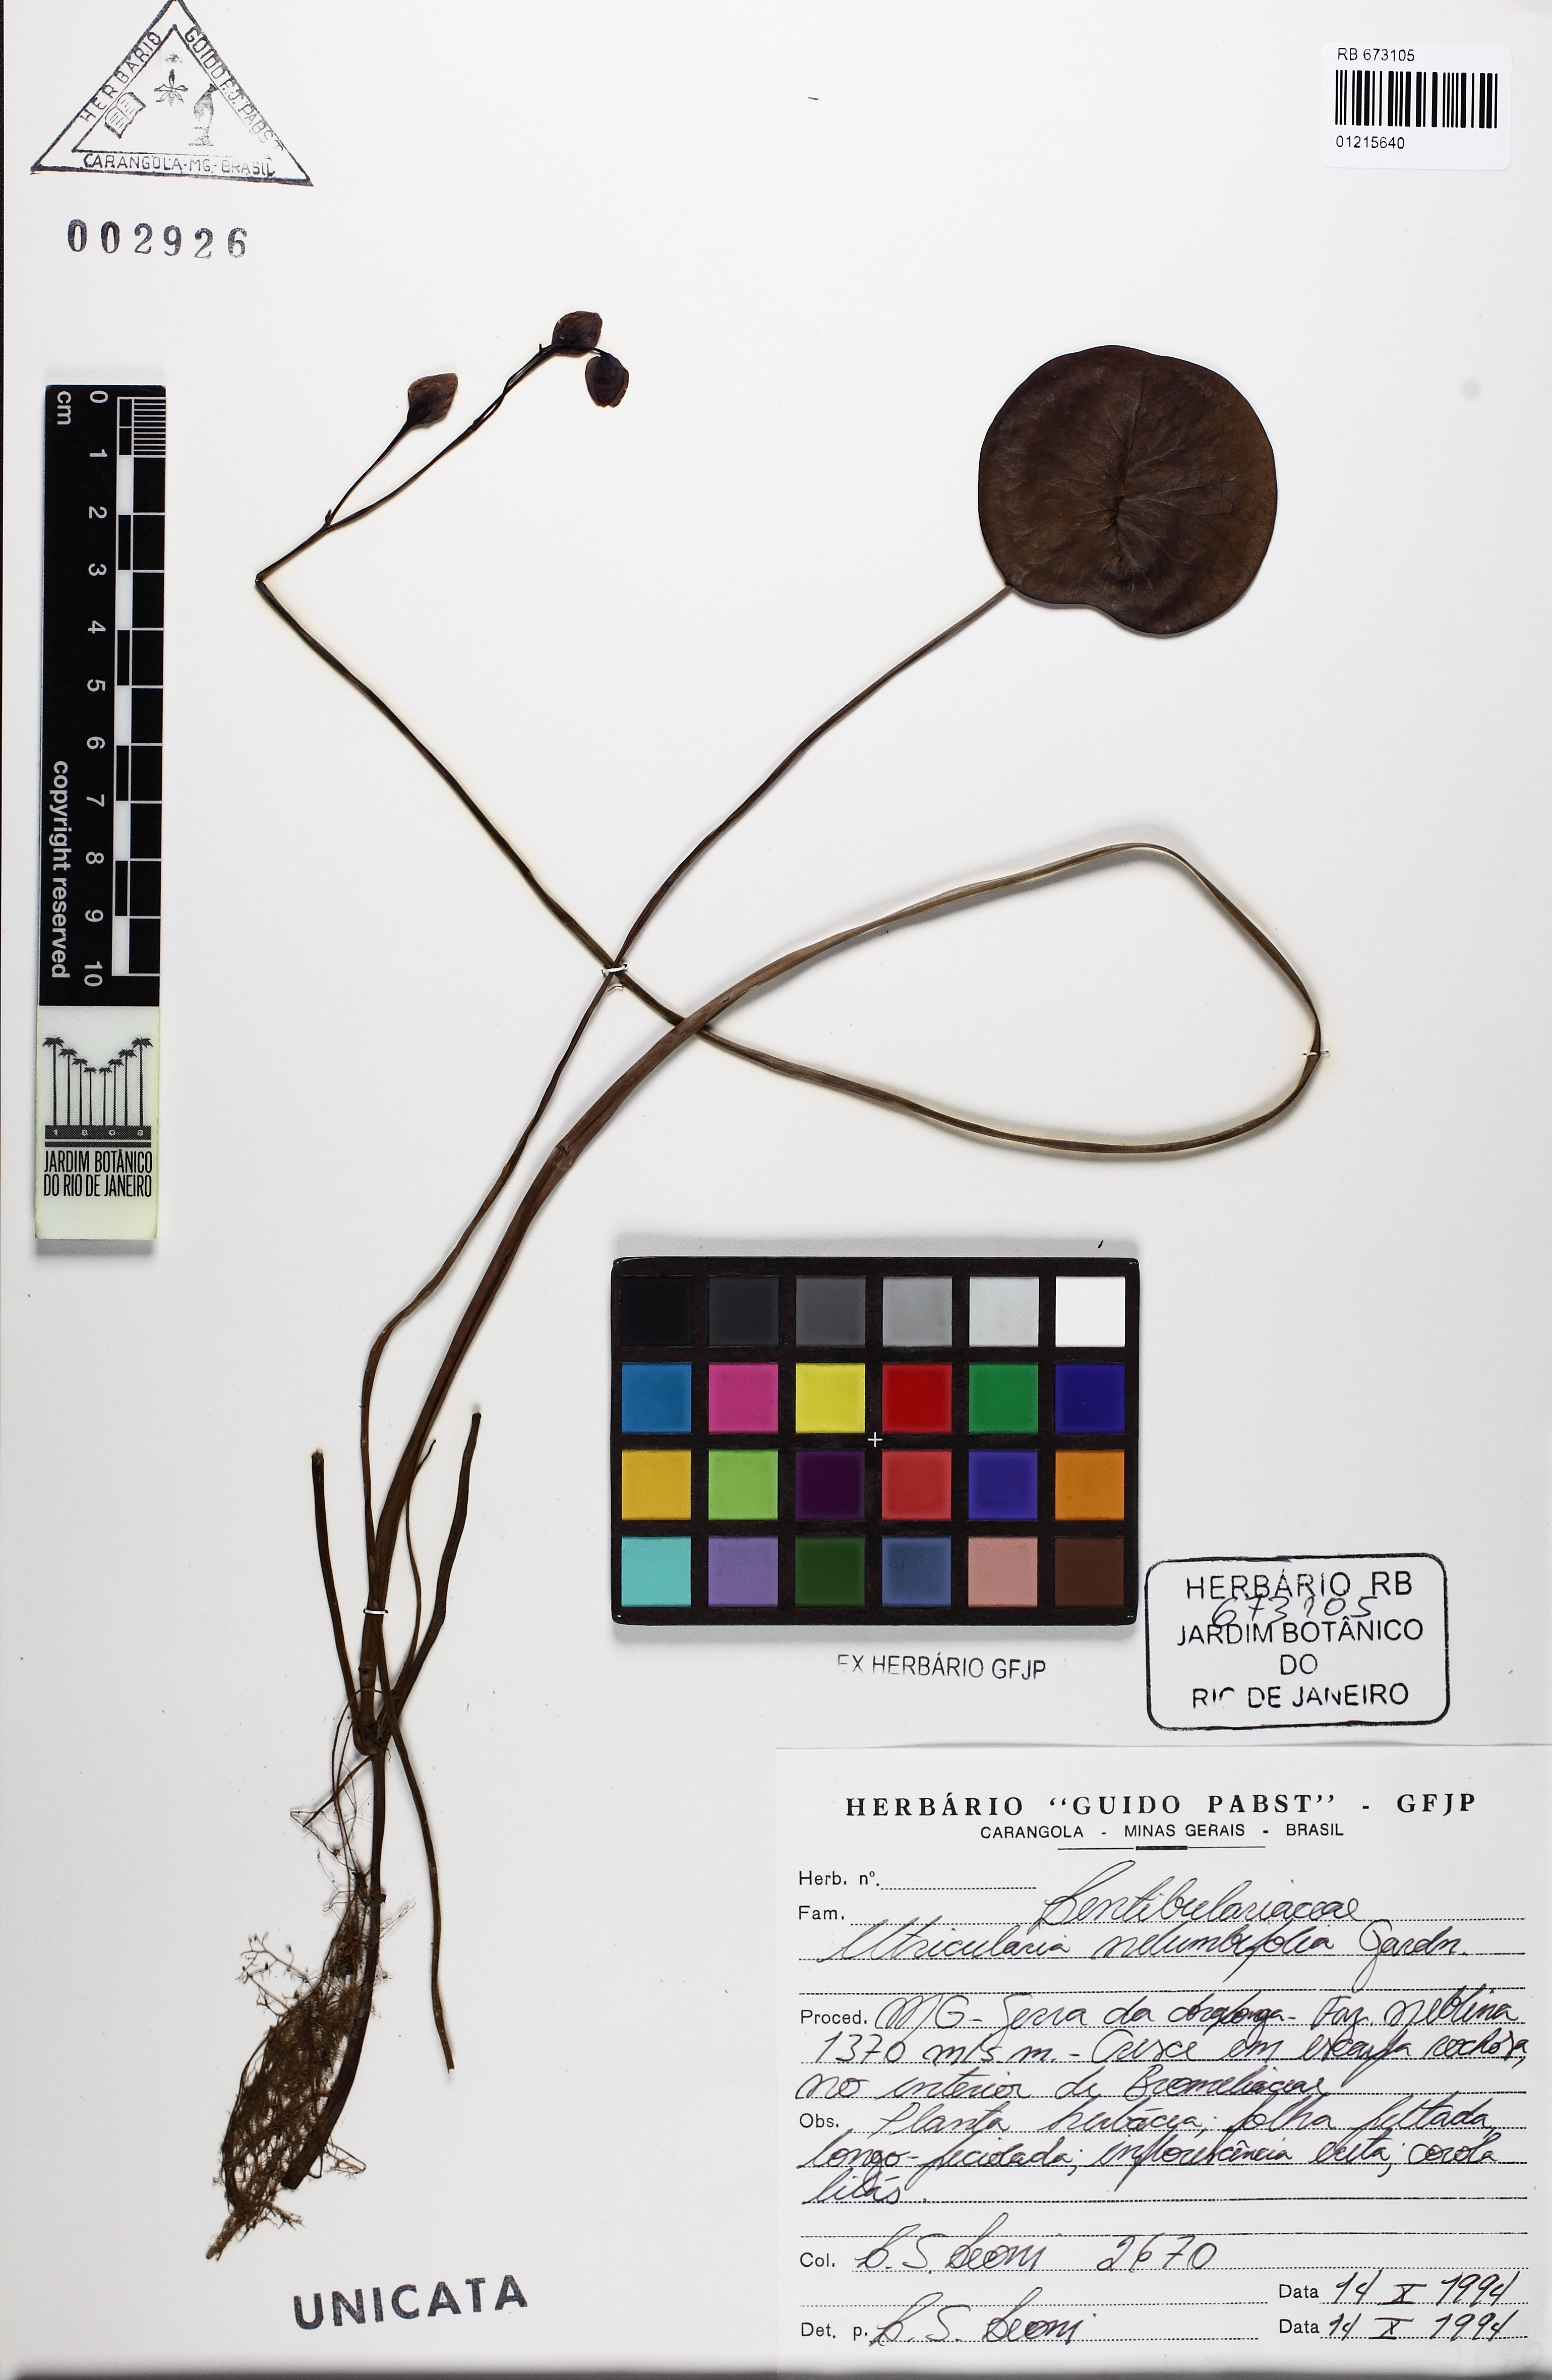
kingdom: Plantae
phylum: Tracheophyta
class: Magnoliopsida
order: Lamiales
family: Lentibulariaceae
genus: Utricularia
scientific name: Utricularia nelumbifolia
